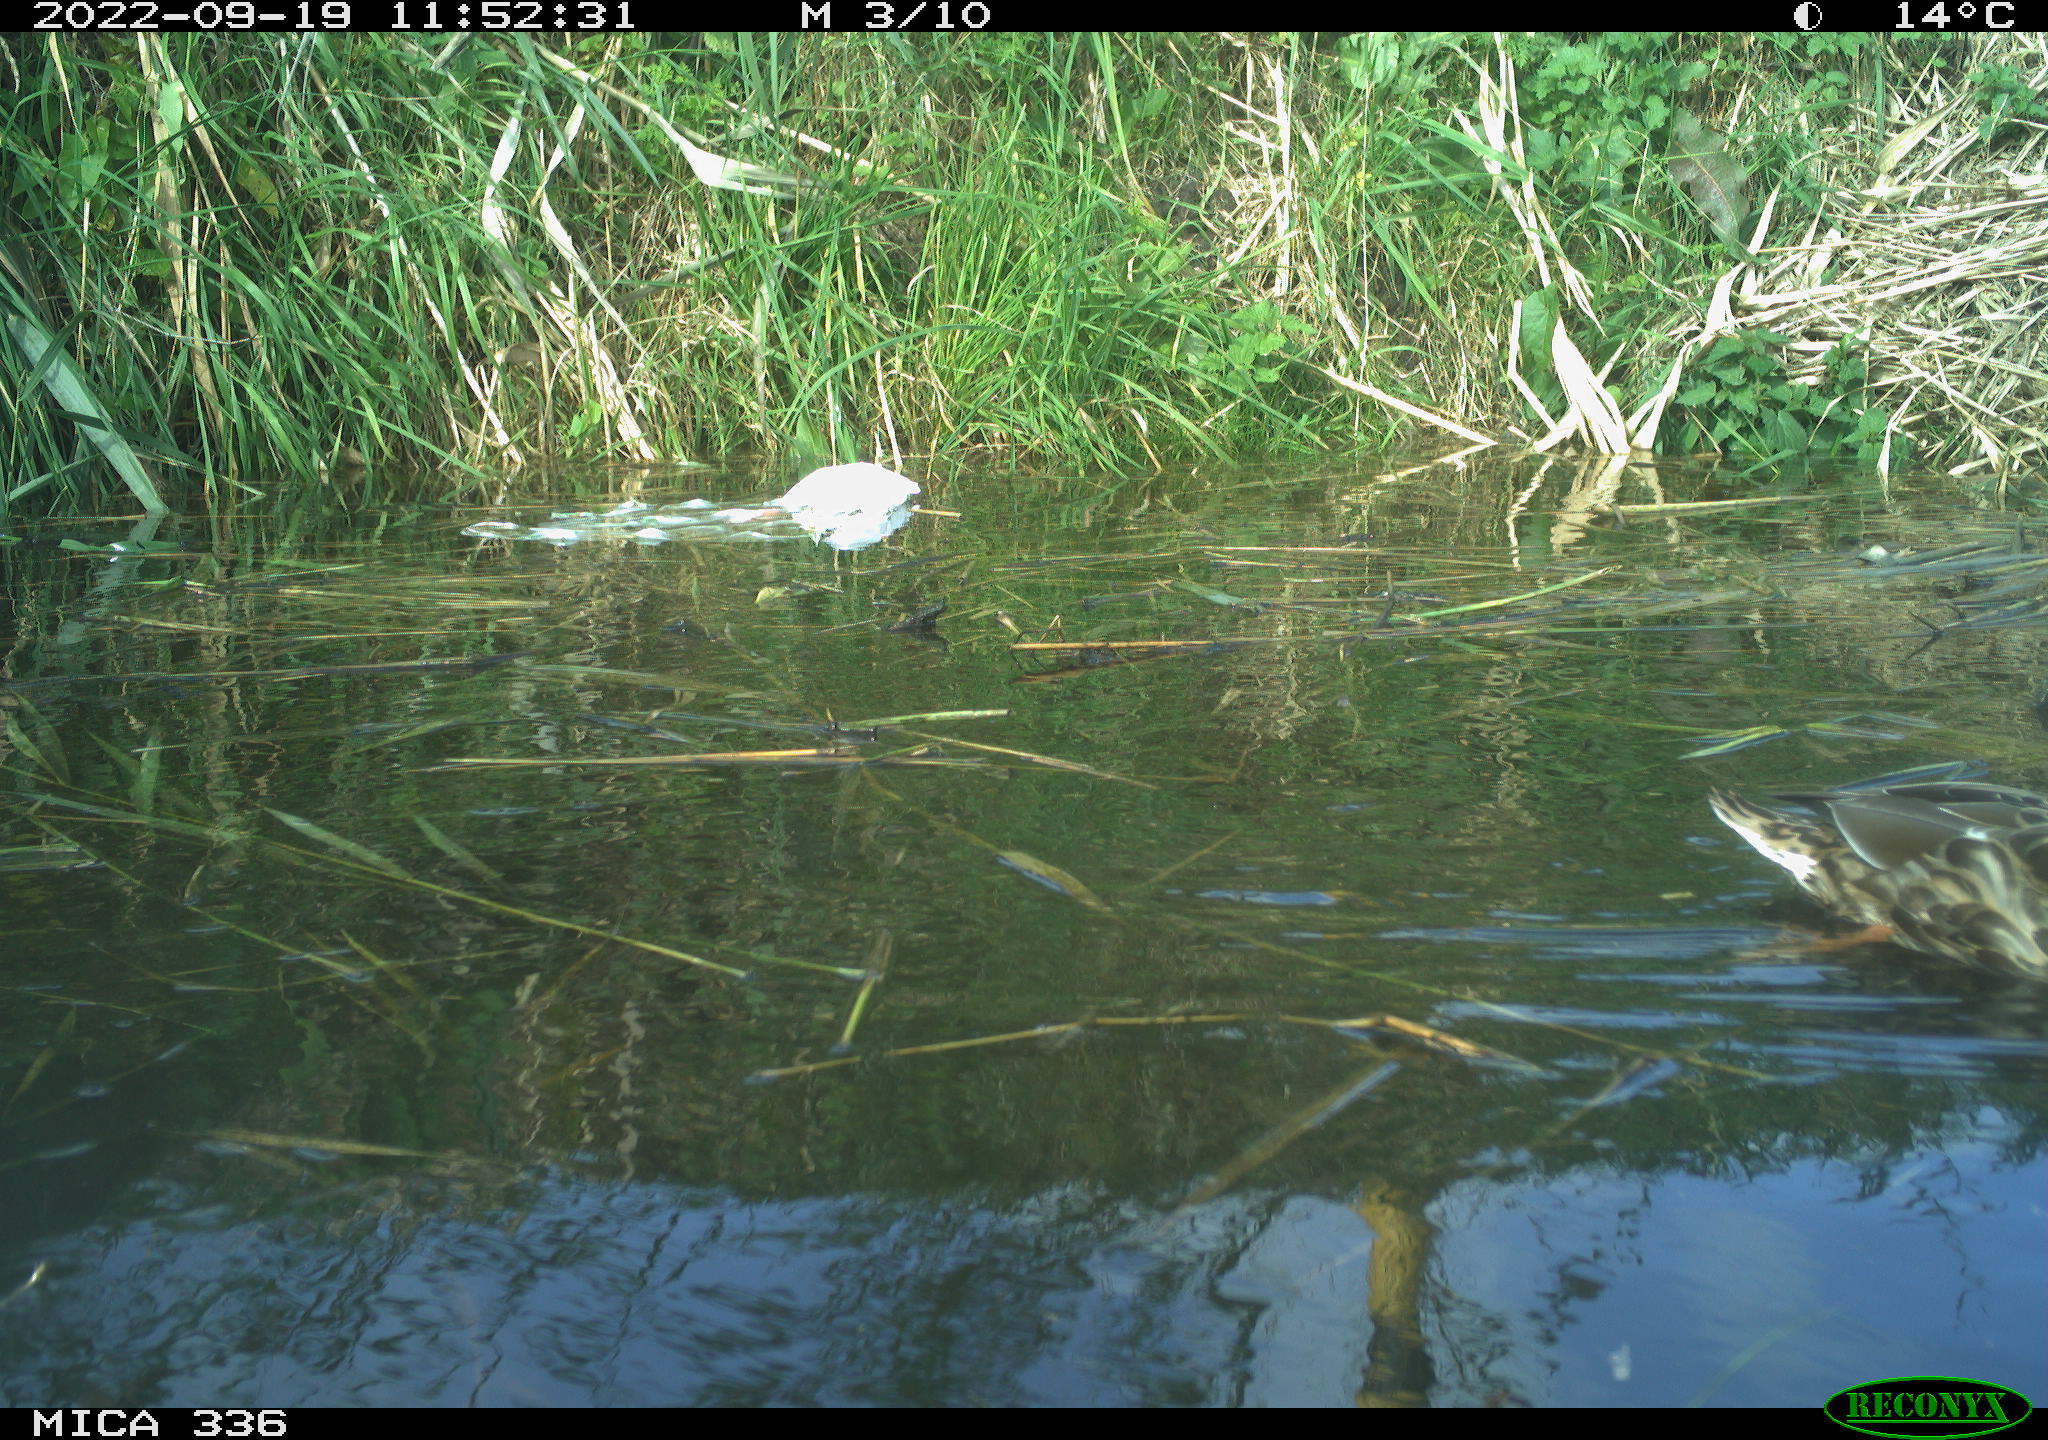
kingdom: Animalia
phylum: Chordata
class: Aves
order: Anseriformes
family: Anatidae
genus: Anas
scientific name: Anas
